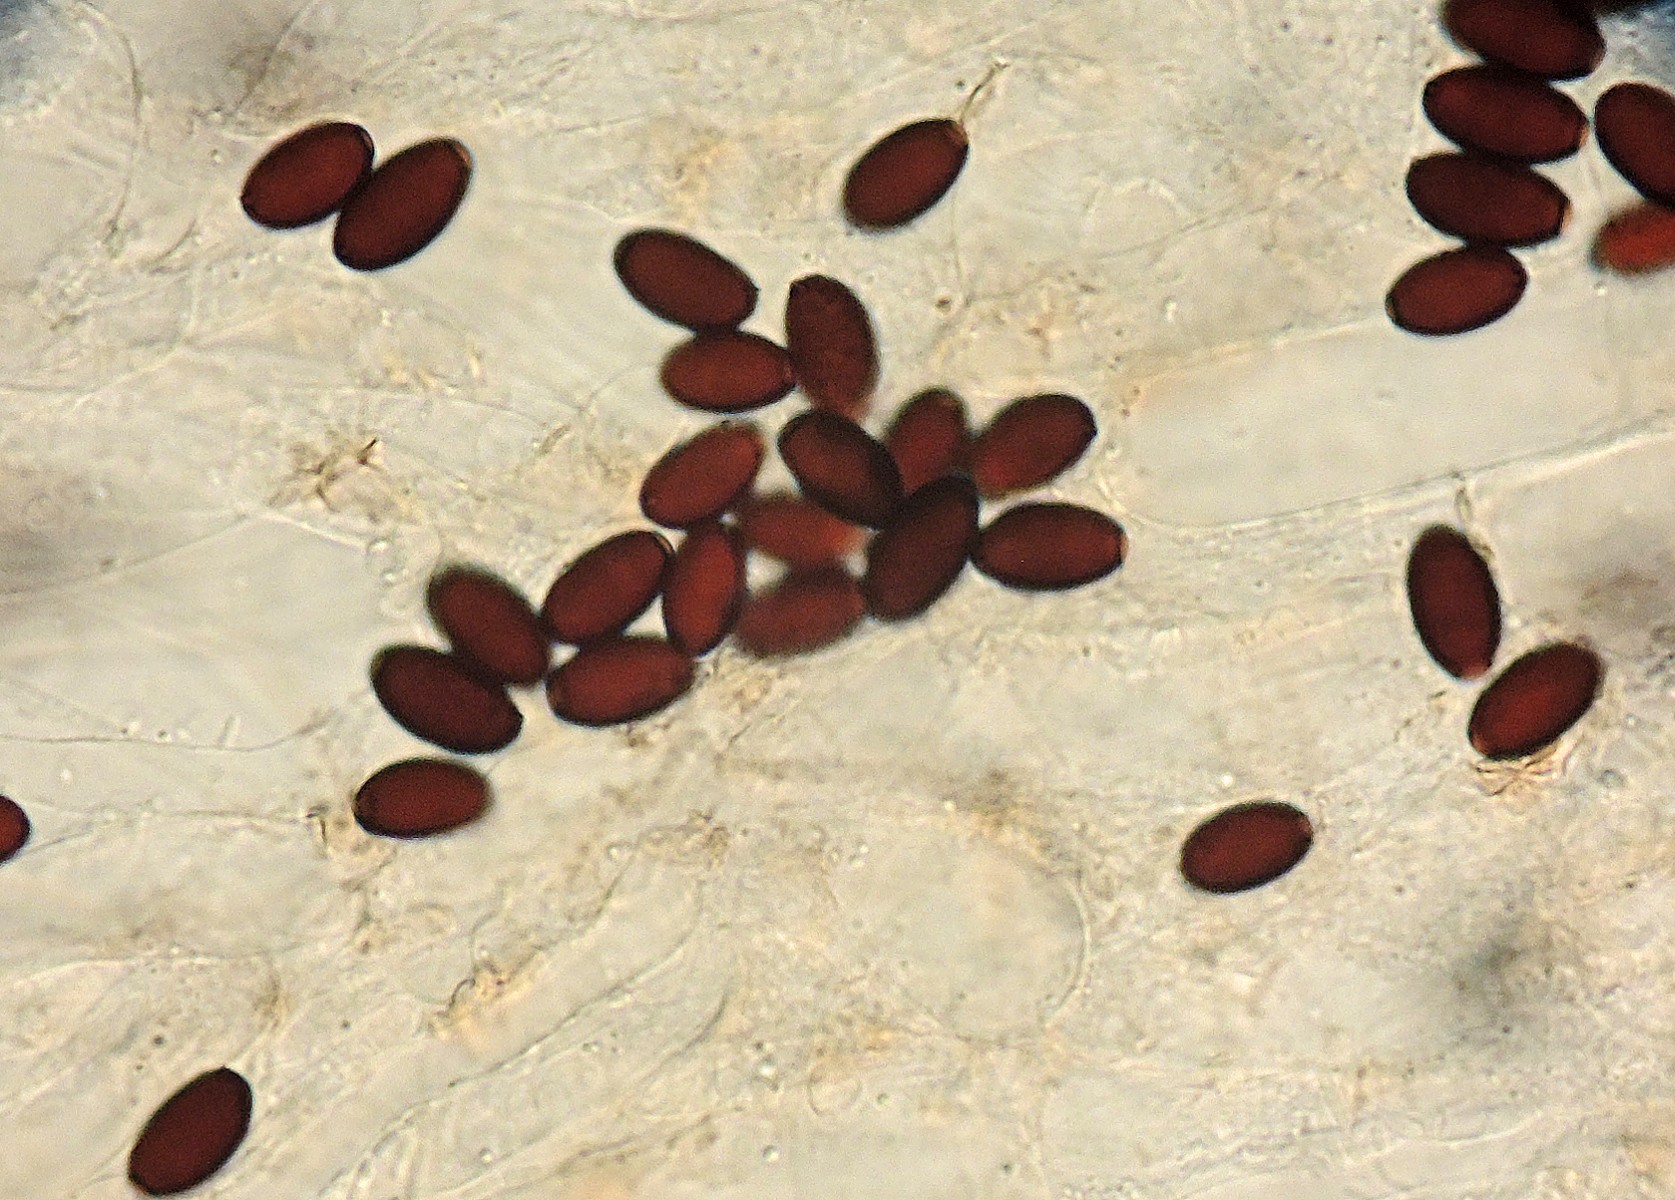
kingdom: Fungi
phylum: Basidiomycota
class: Agaricomycetes
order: Agaricales
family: Psathyrellaceae
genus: Tulosesus
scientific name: Tulosesus callinus
